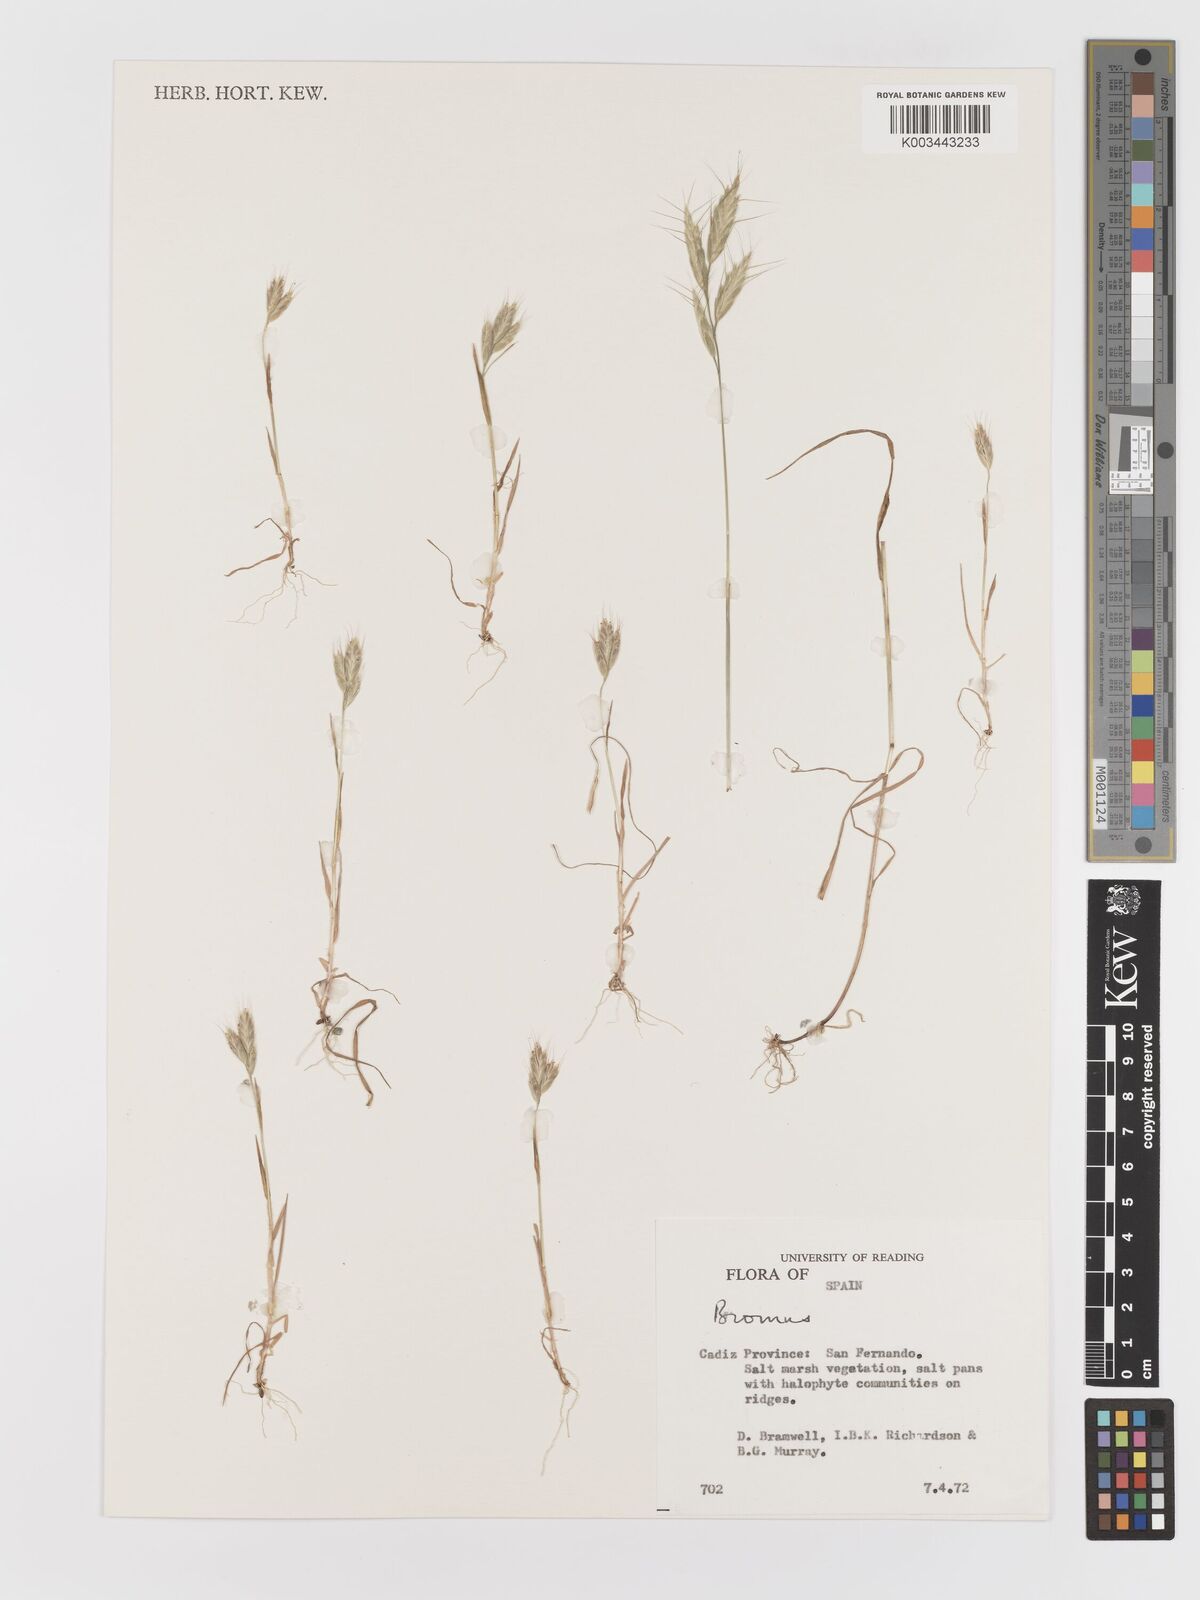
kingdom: Plantae
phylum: Tracheophyta
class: Liliopsida
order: Poales
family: Poaceae
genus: Bromus
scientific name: Bromus
